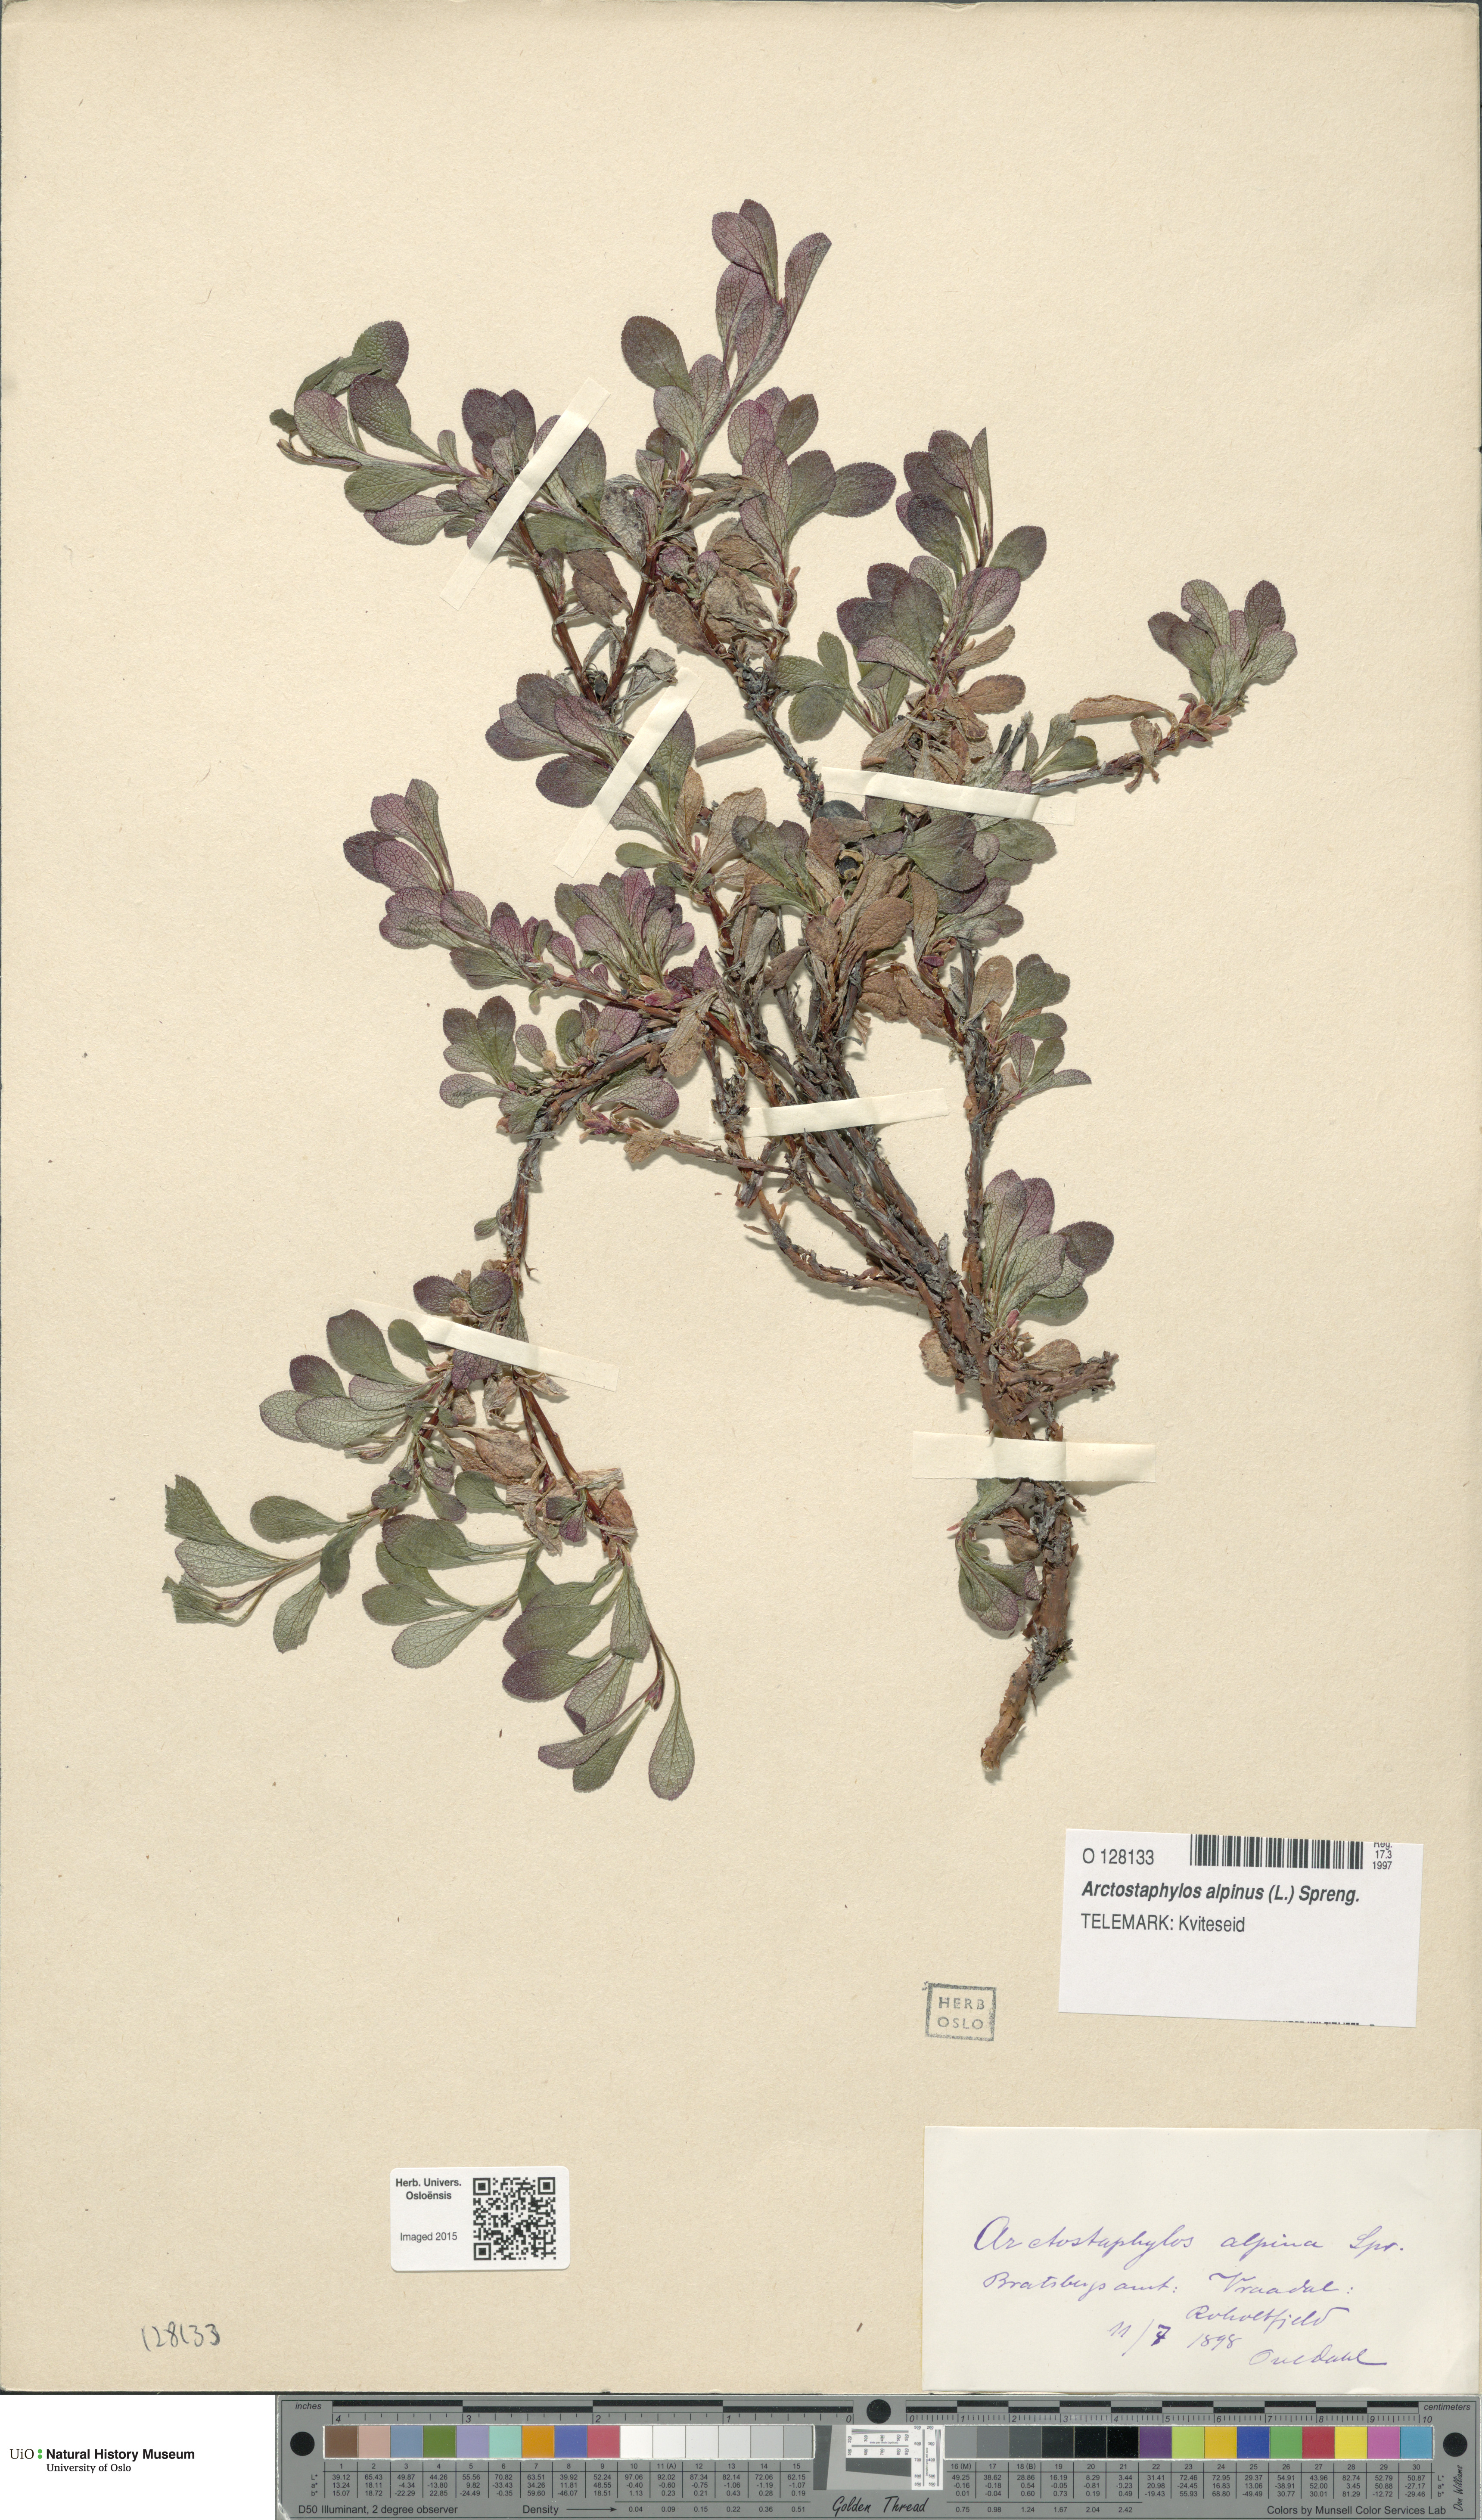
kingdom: Plantae
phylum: Tracheophyta
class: Magnoliopsida
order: Ericales
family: Ericaceae
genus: Arctostaphylos
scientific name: Arctostaphylos alpinus
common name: Alpine bearberry
